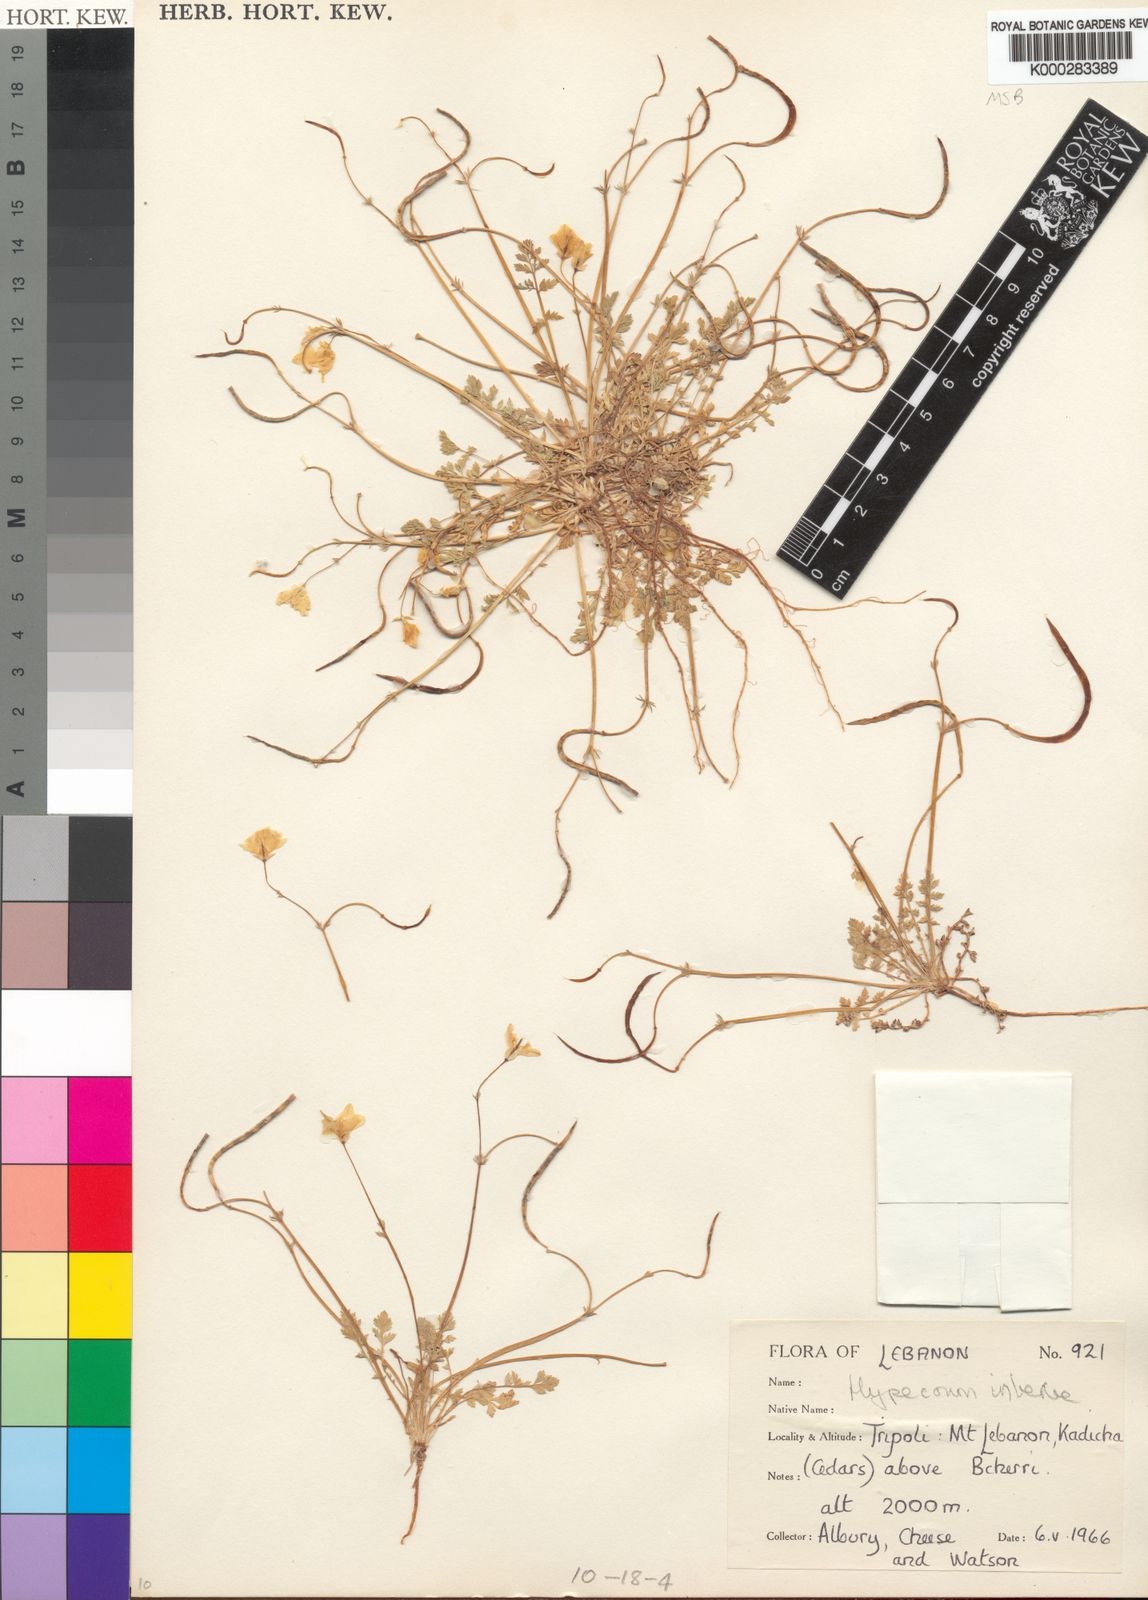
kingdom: Plantae
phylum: Tracheophyta
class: Magnoliopsida
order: Ranunculales
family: Papaveraceae
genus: Hypecoum
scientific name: Hypecoum imberbe
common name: Sicklefruit hypecoum
